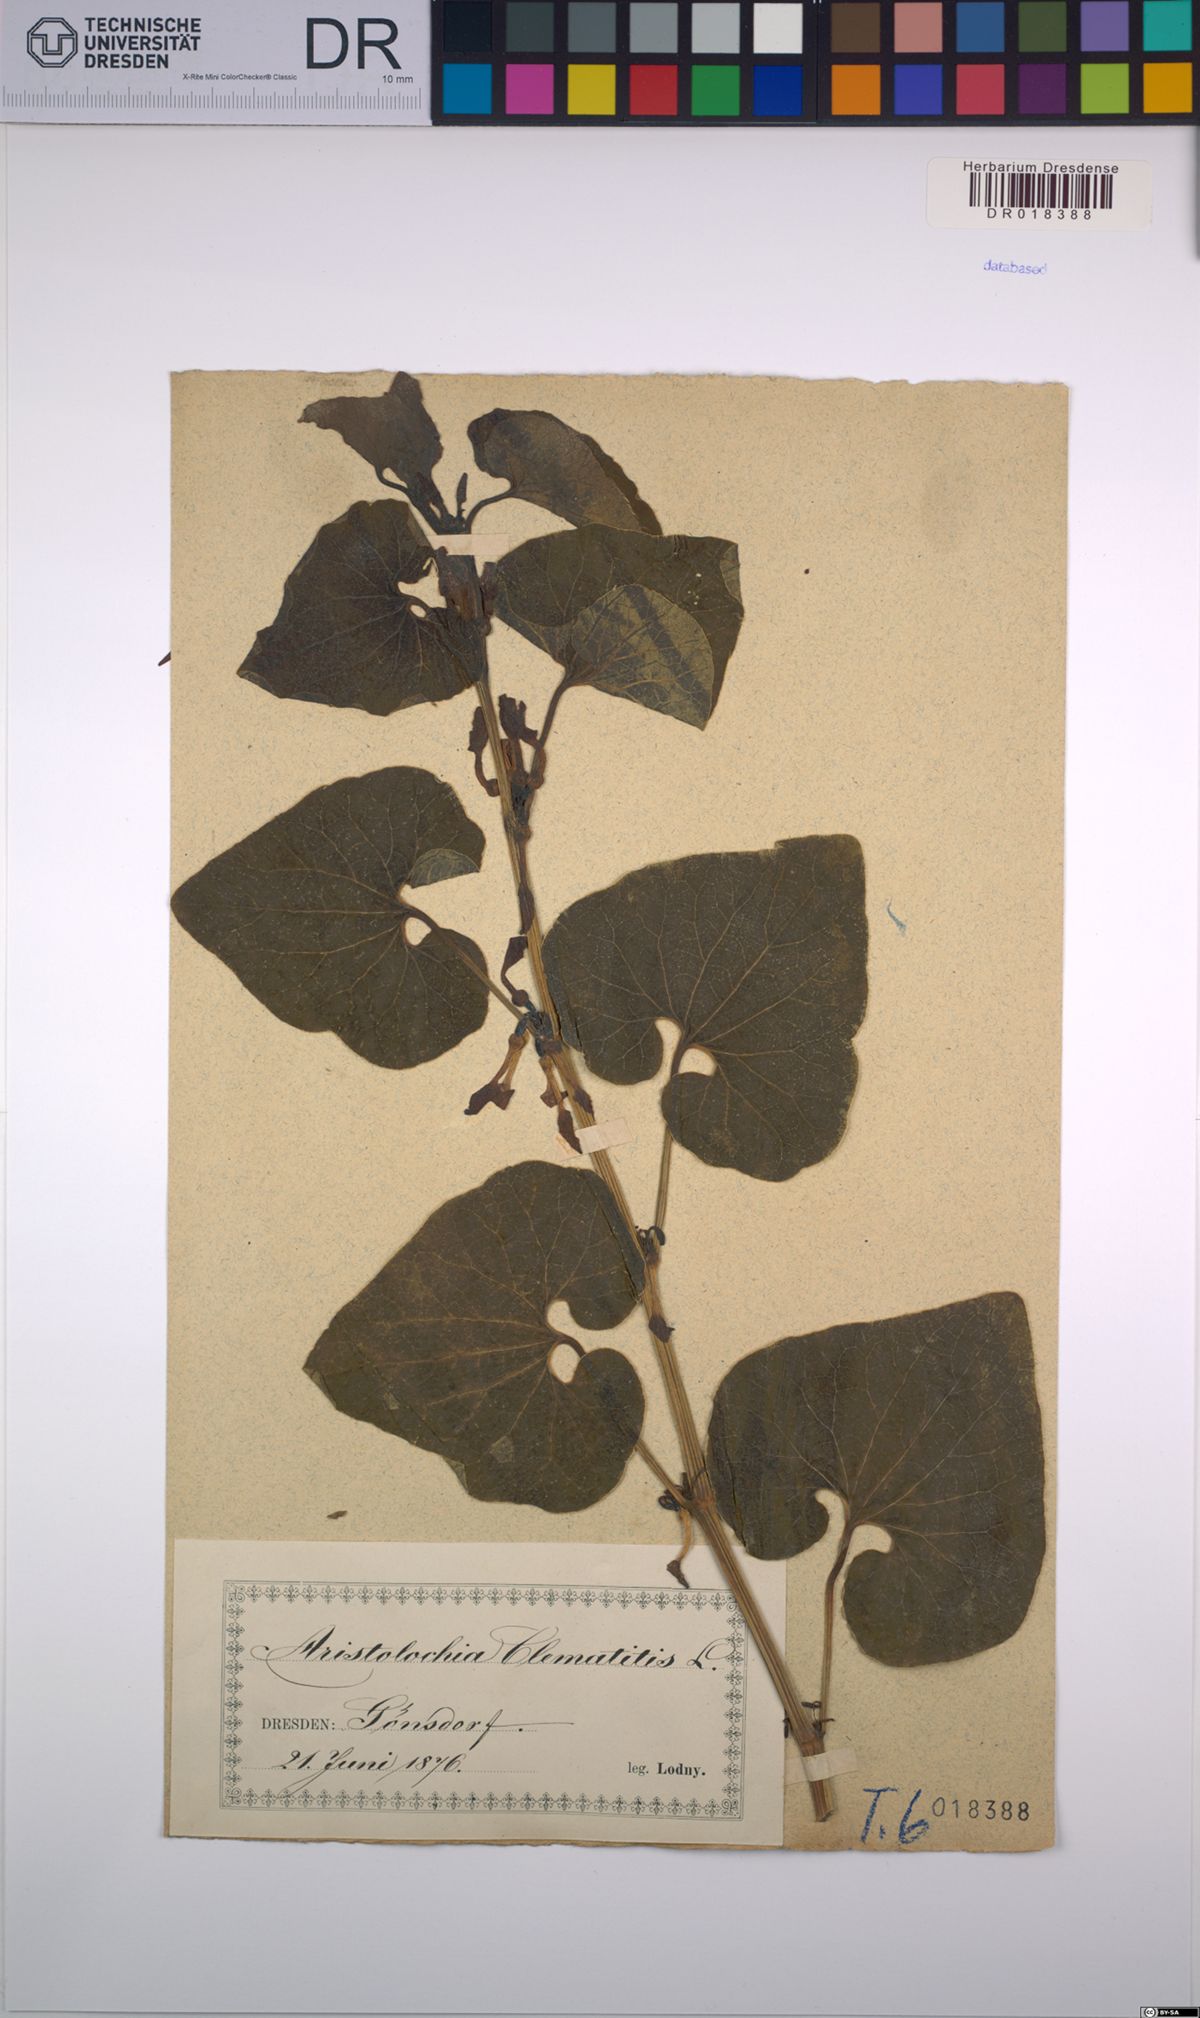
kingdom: Plantae
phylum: Tracheophyta
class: Magnoliopsida
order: Piperales
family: Aristolochiaceae
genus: Aristolochia
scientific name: Aristolochia clematitis
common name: Birthwort
